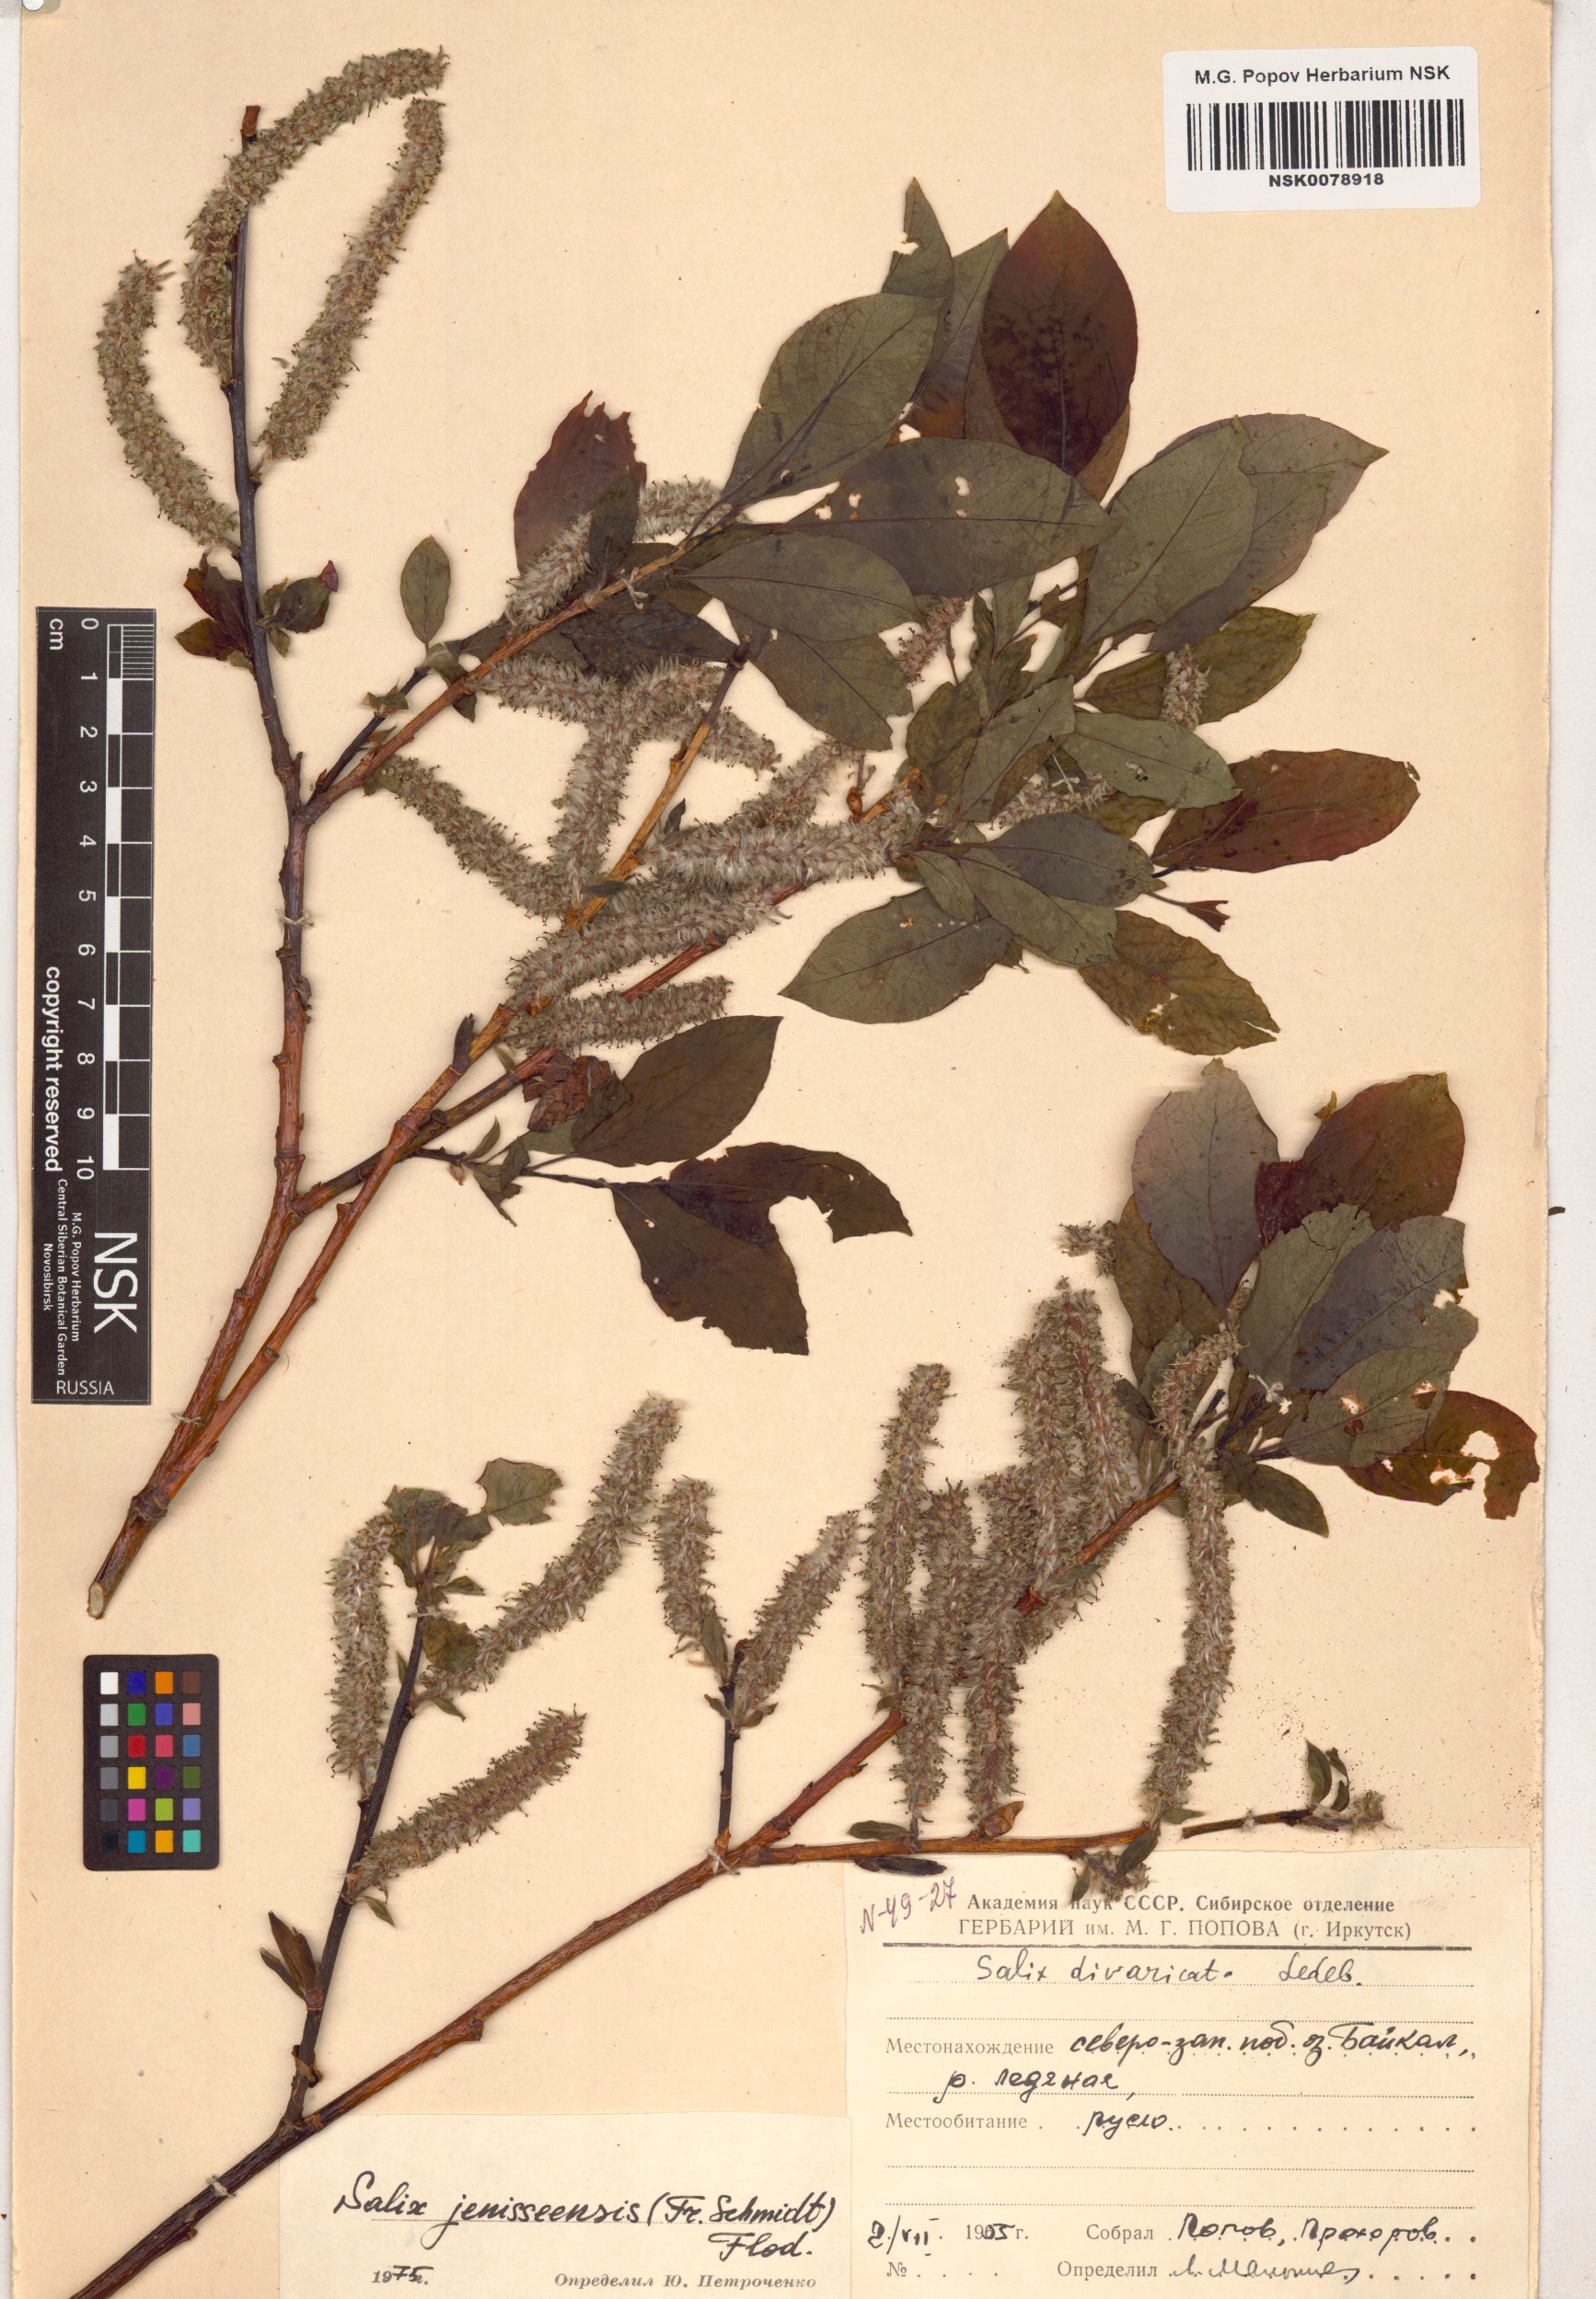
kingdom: Plantae
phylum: Tracheophyta
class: Magnoliopsida
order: Malpighiales
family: Salicaceae
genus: Salix
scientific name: Salix jenisseensis
